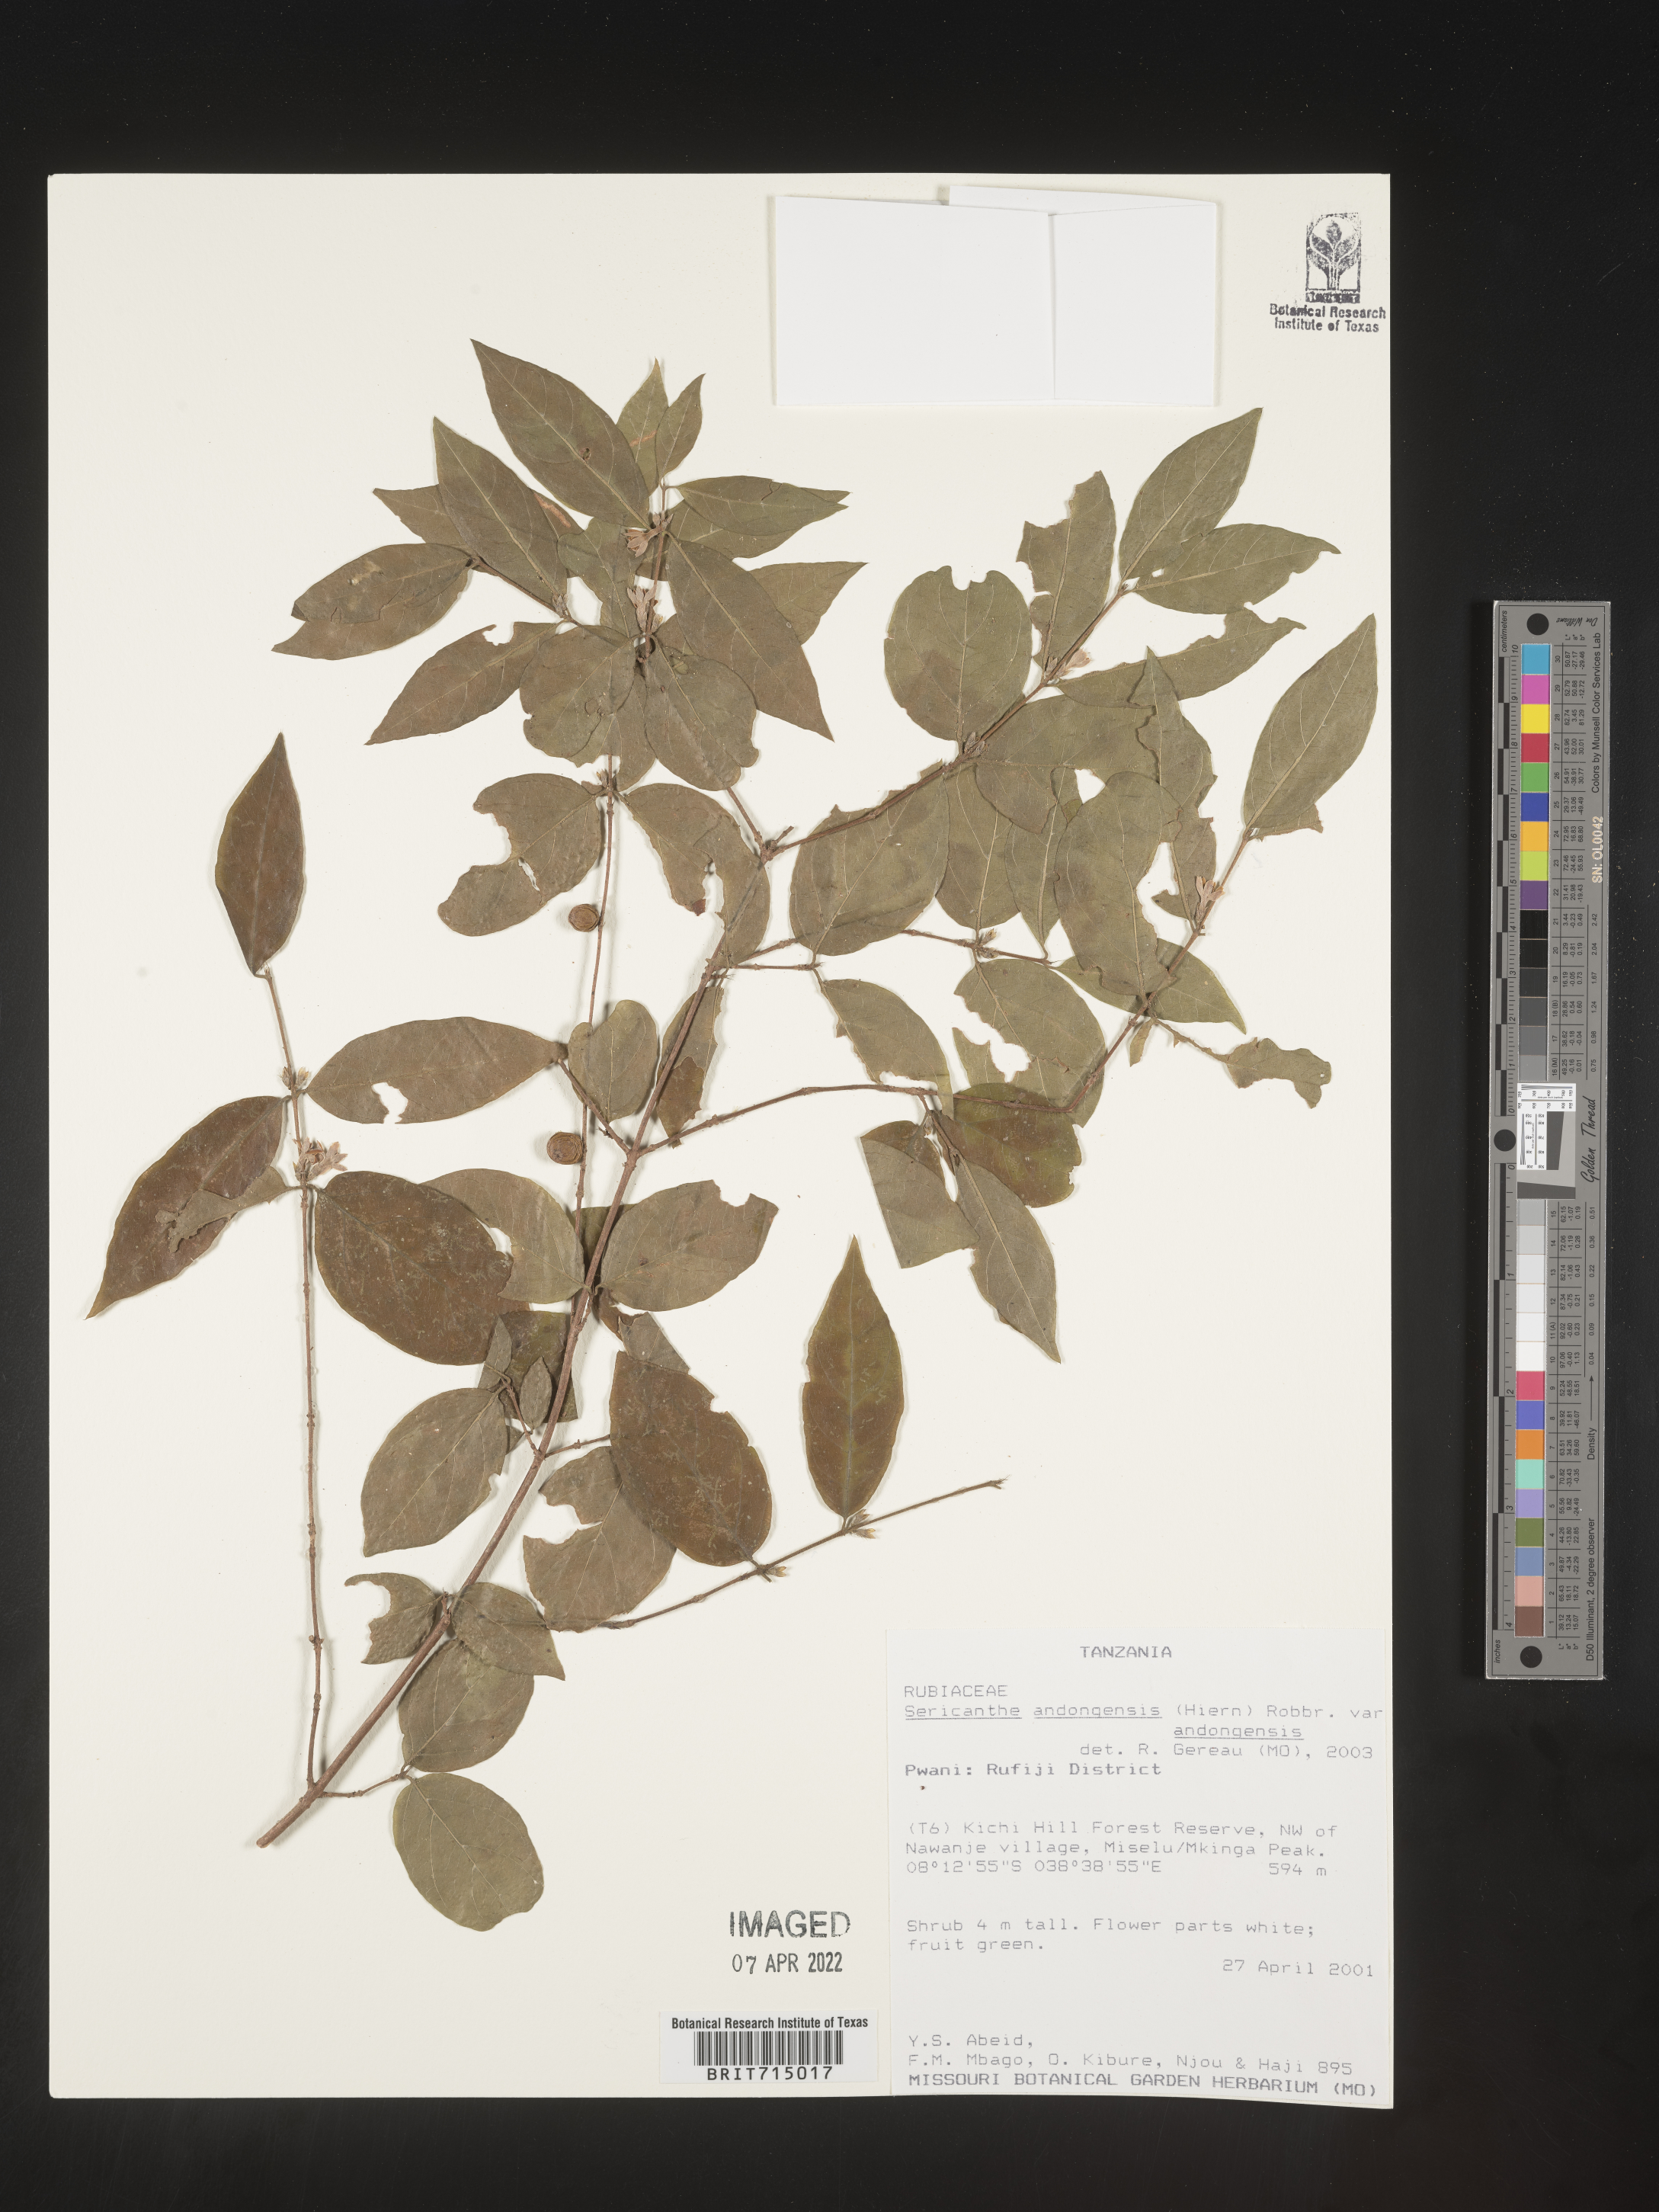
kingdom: Plantae
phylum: Tracheophyta
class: Magnoliopsida
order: Gentianales
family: Rubiaceae
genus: Sericanthe
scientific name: Sericanthe
